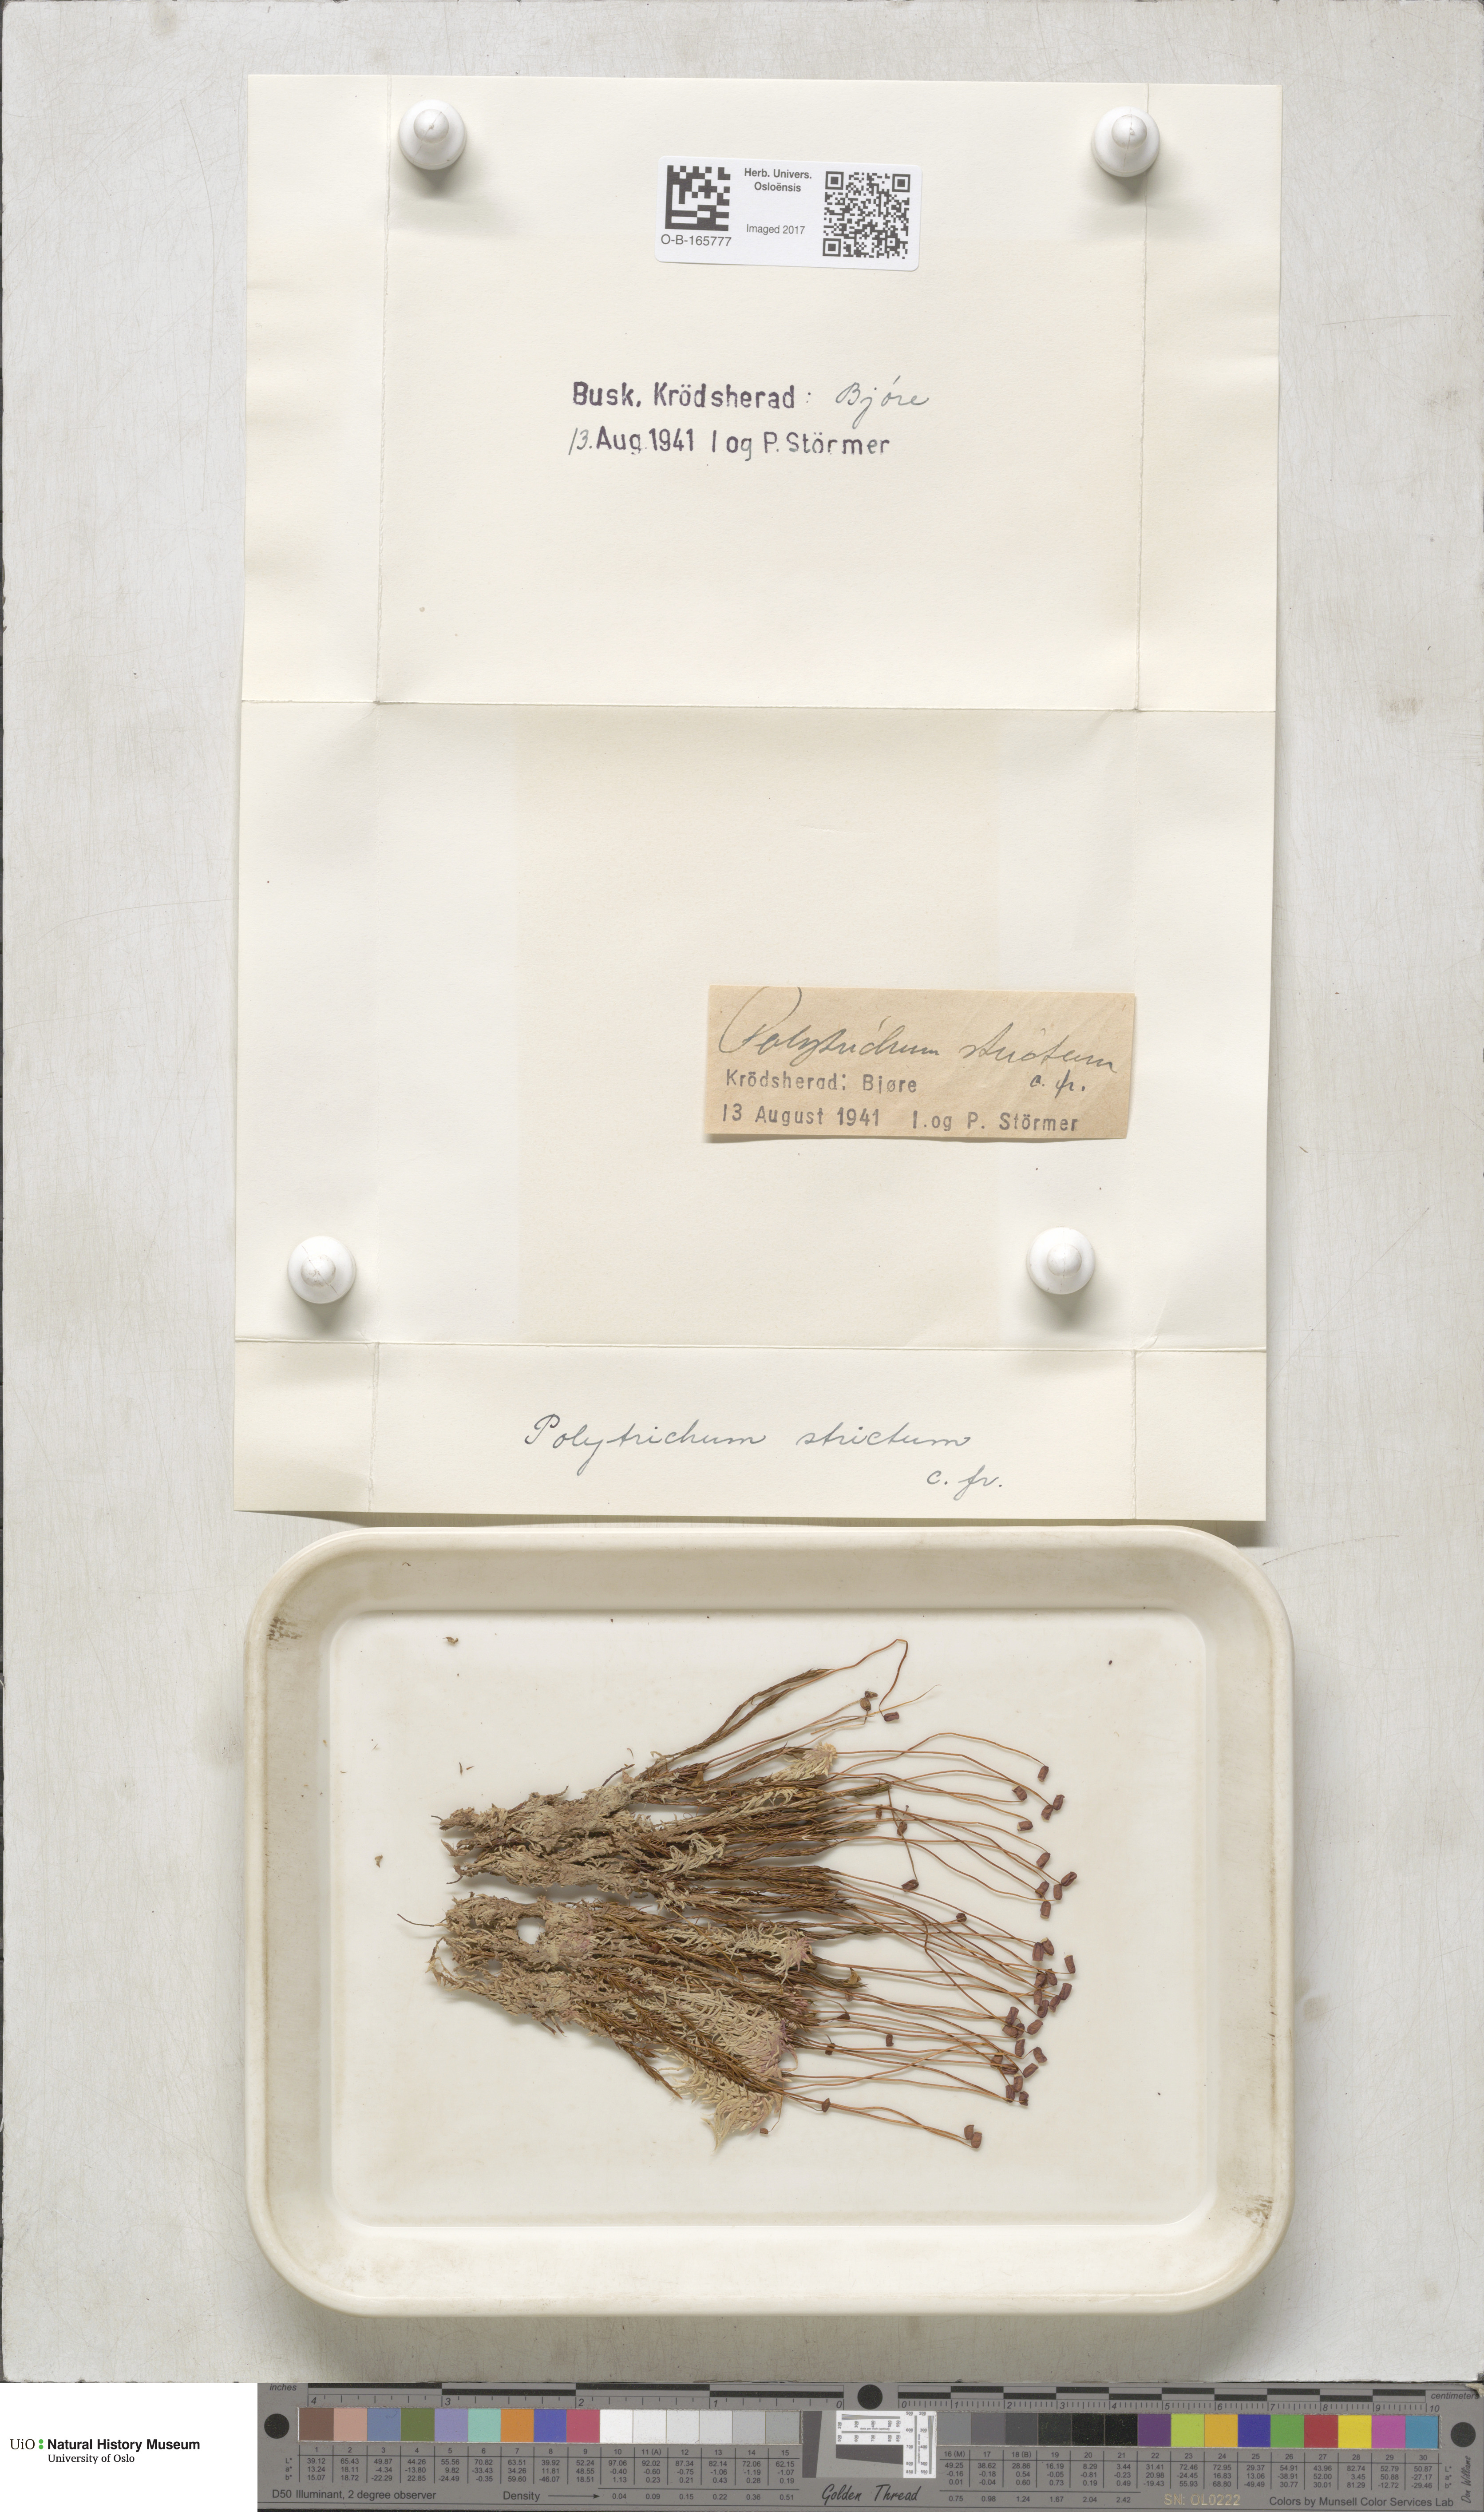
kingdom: Plantae
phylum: Bryophyta
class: Polytrichopsida
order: Polytrichales
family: Polytrichaceae
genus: Polytrichum
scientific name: Polytrichum strictum
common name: Bog haircap moss
